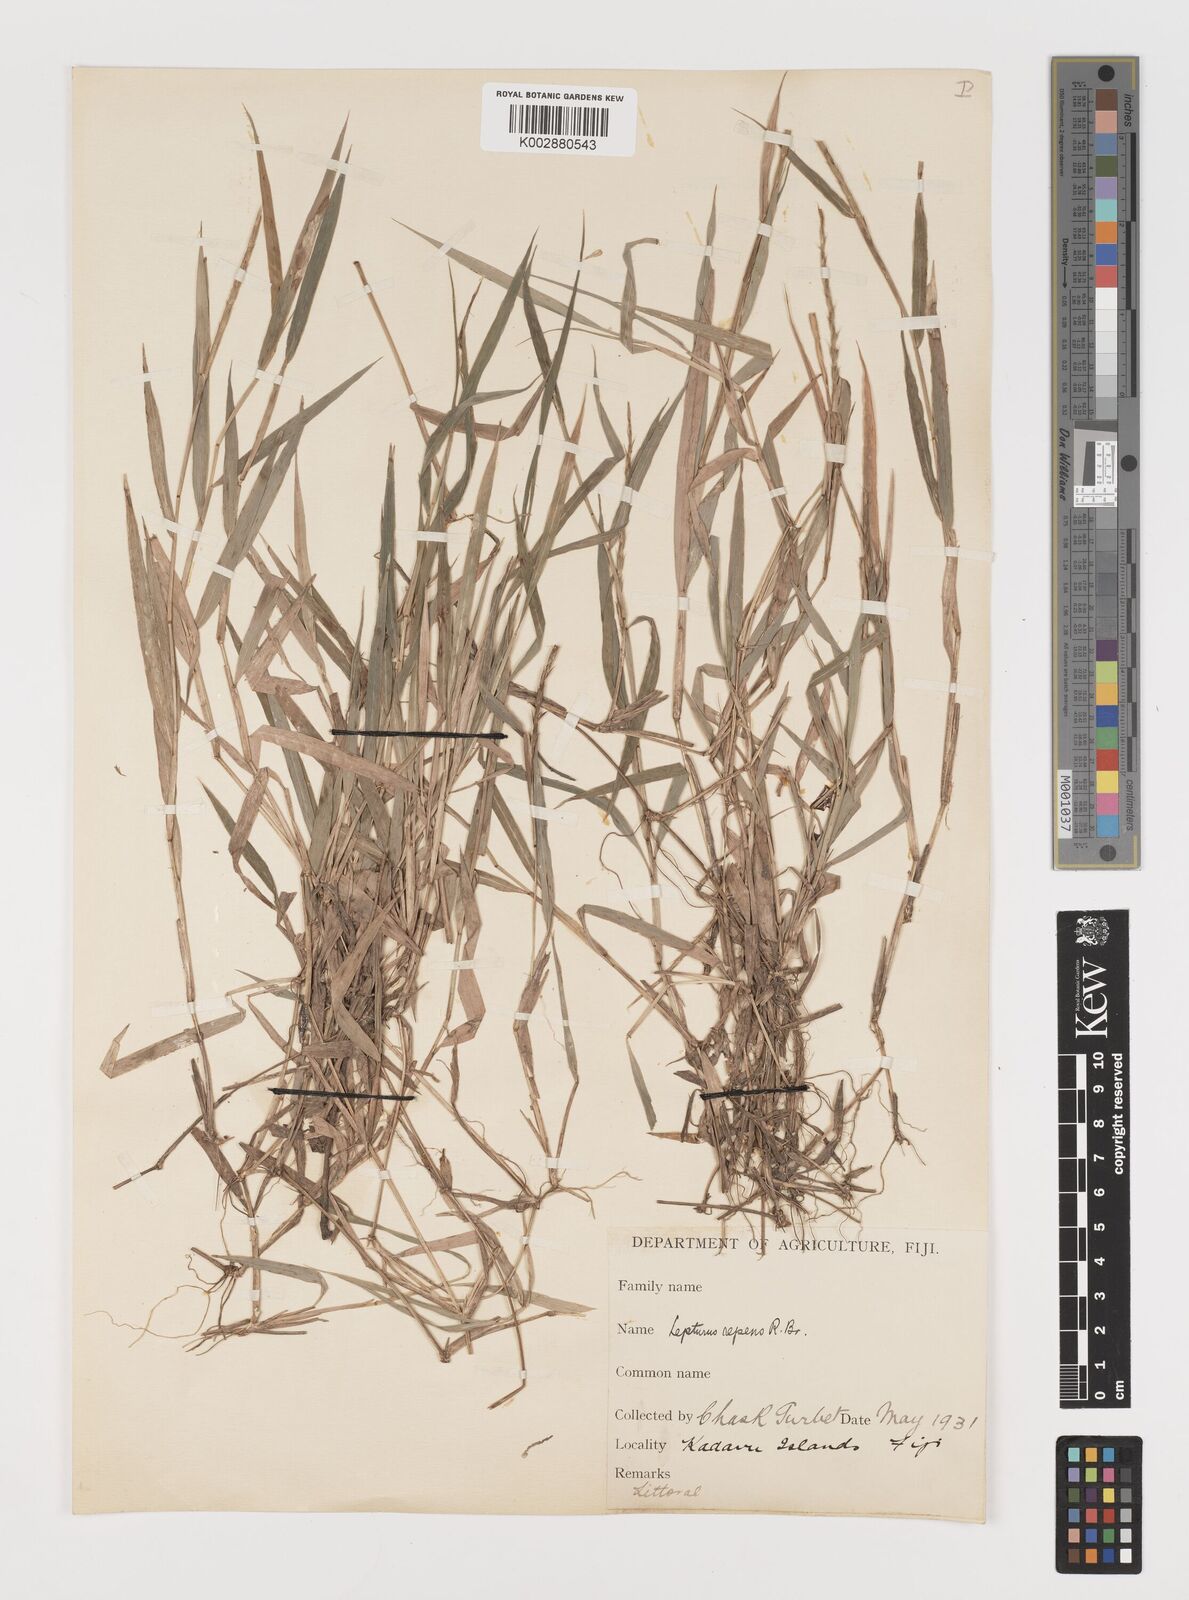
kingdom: Plantae
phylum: Tracheophyta
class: Liliopsida
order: Poales
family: Poaceae
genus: Lepturus
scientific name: Lepturus repens
